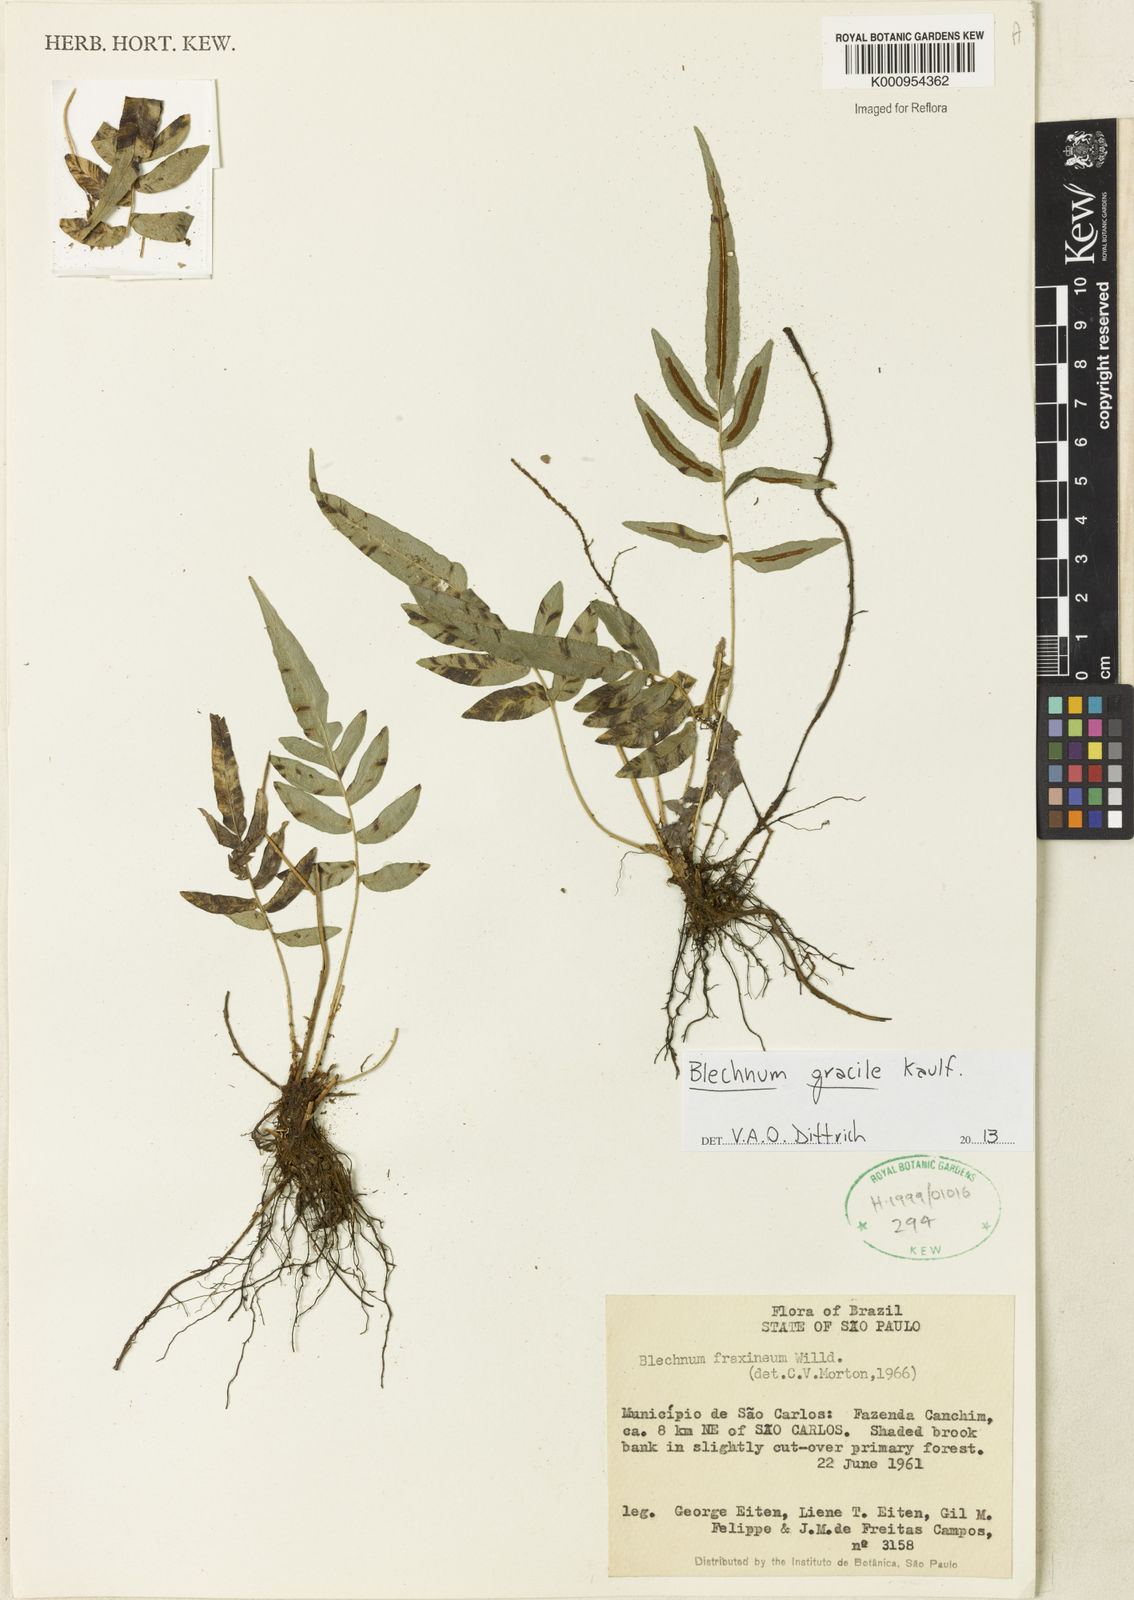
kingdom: Plantae
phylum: Tracheophyta
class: Polypodiopsida
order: Polypodiales
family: Blechnaceae
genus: Blechnum
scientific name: Blechnum gracile
